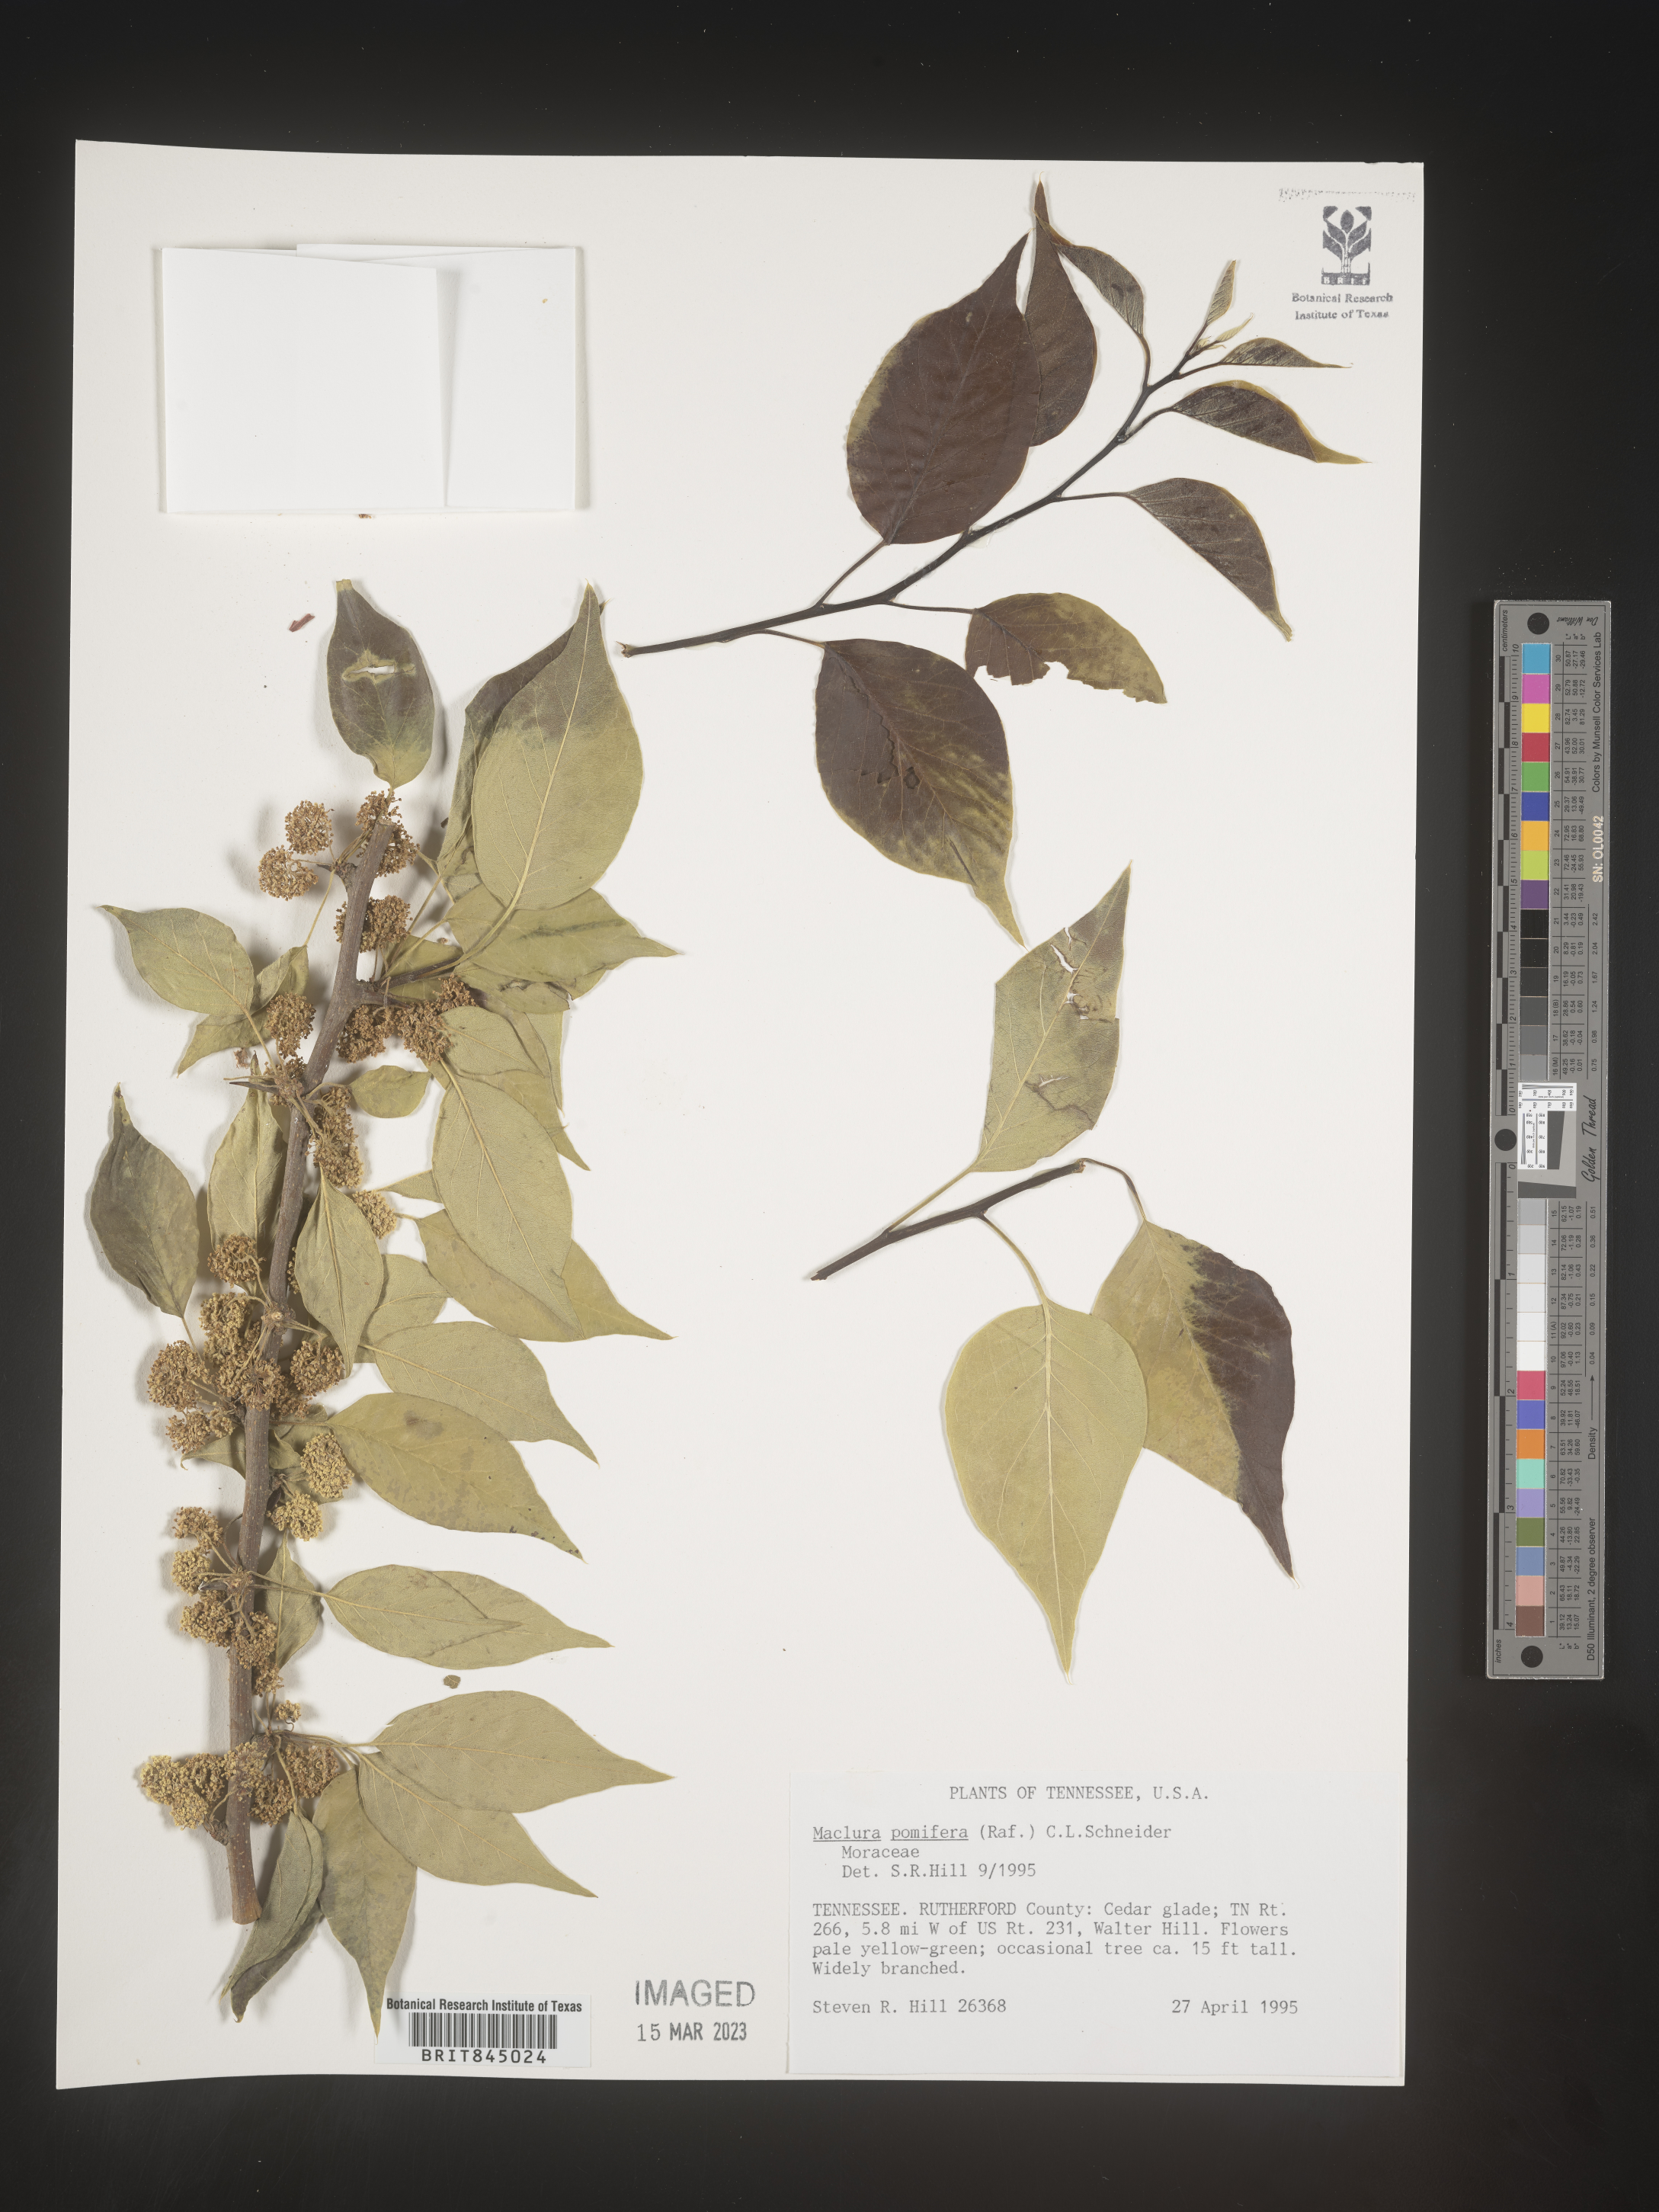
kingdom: Plantae
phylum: Tracheophyta
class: Magnoliopsida
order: Rosales
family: Moraceae
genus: Maclura
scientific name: Maclura pomifera
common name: Osage-orange
